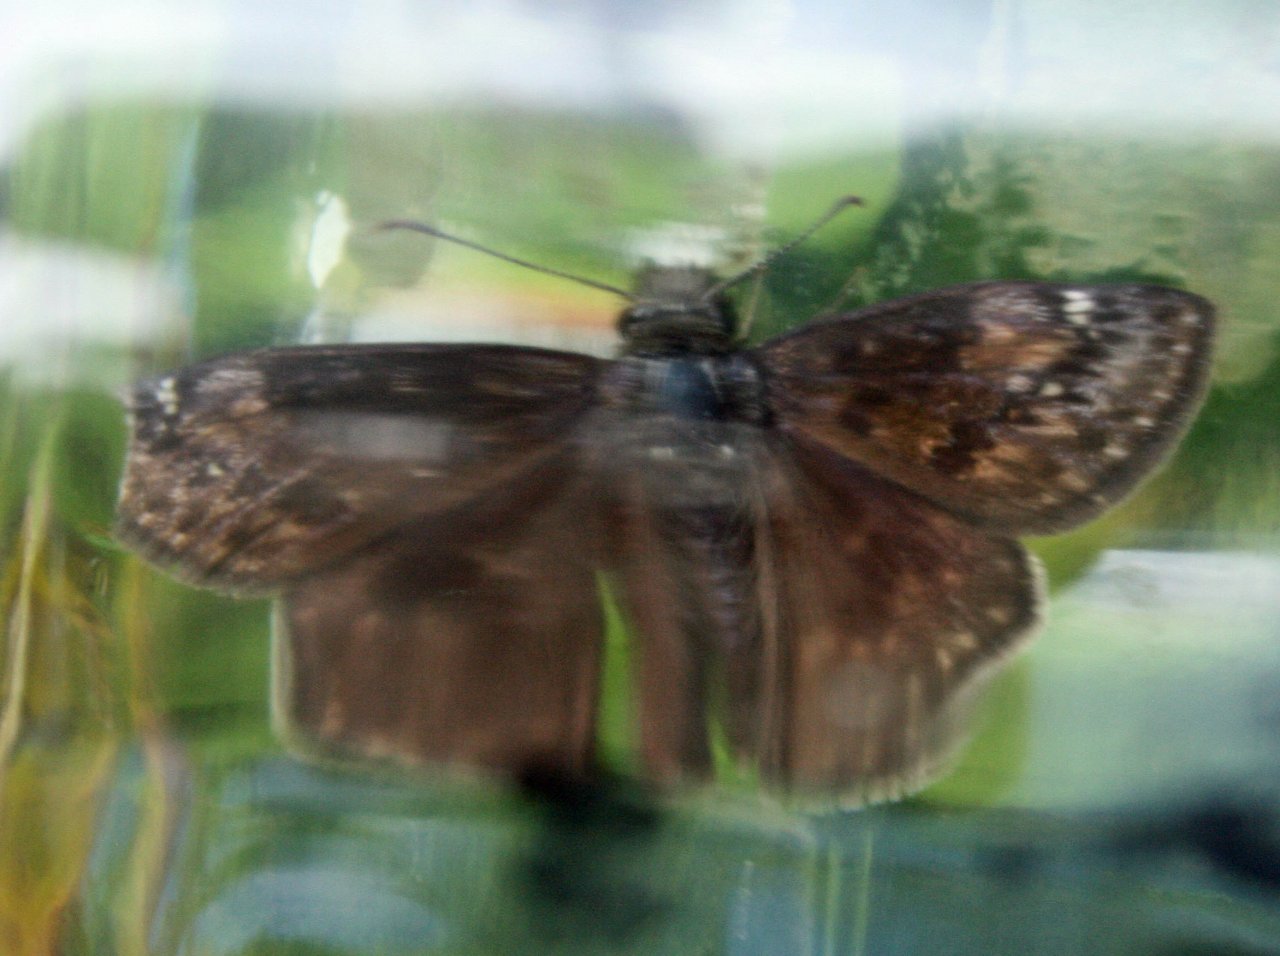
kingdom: Animalia
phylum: Arthropoda
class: Insecta
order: Lepidoptera
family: Hesperiidae
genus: Gesta
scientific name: Gesta
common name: Columbine Duskywing
